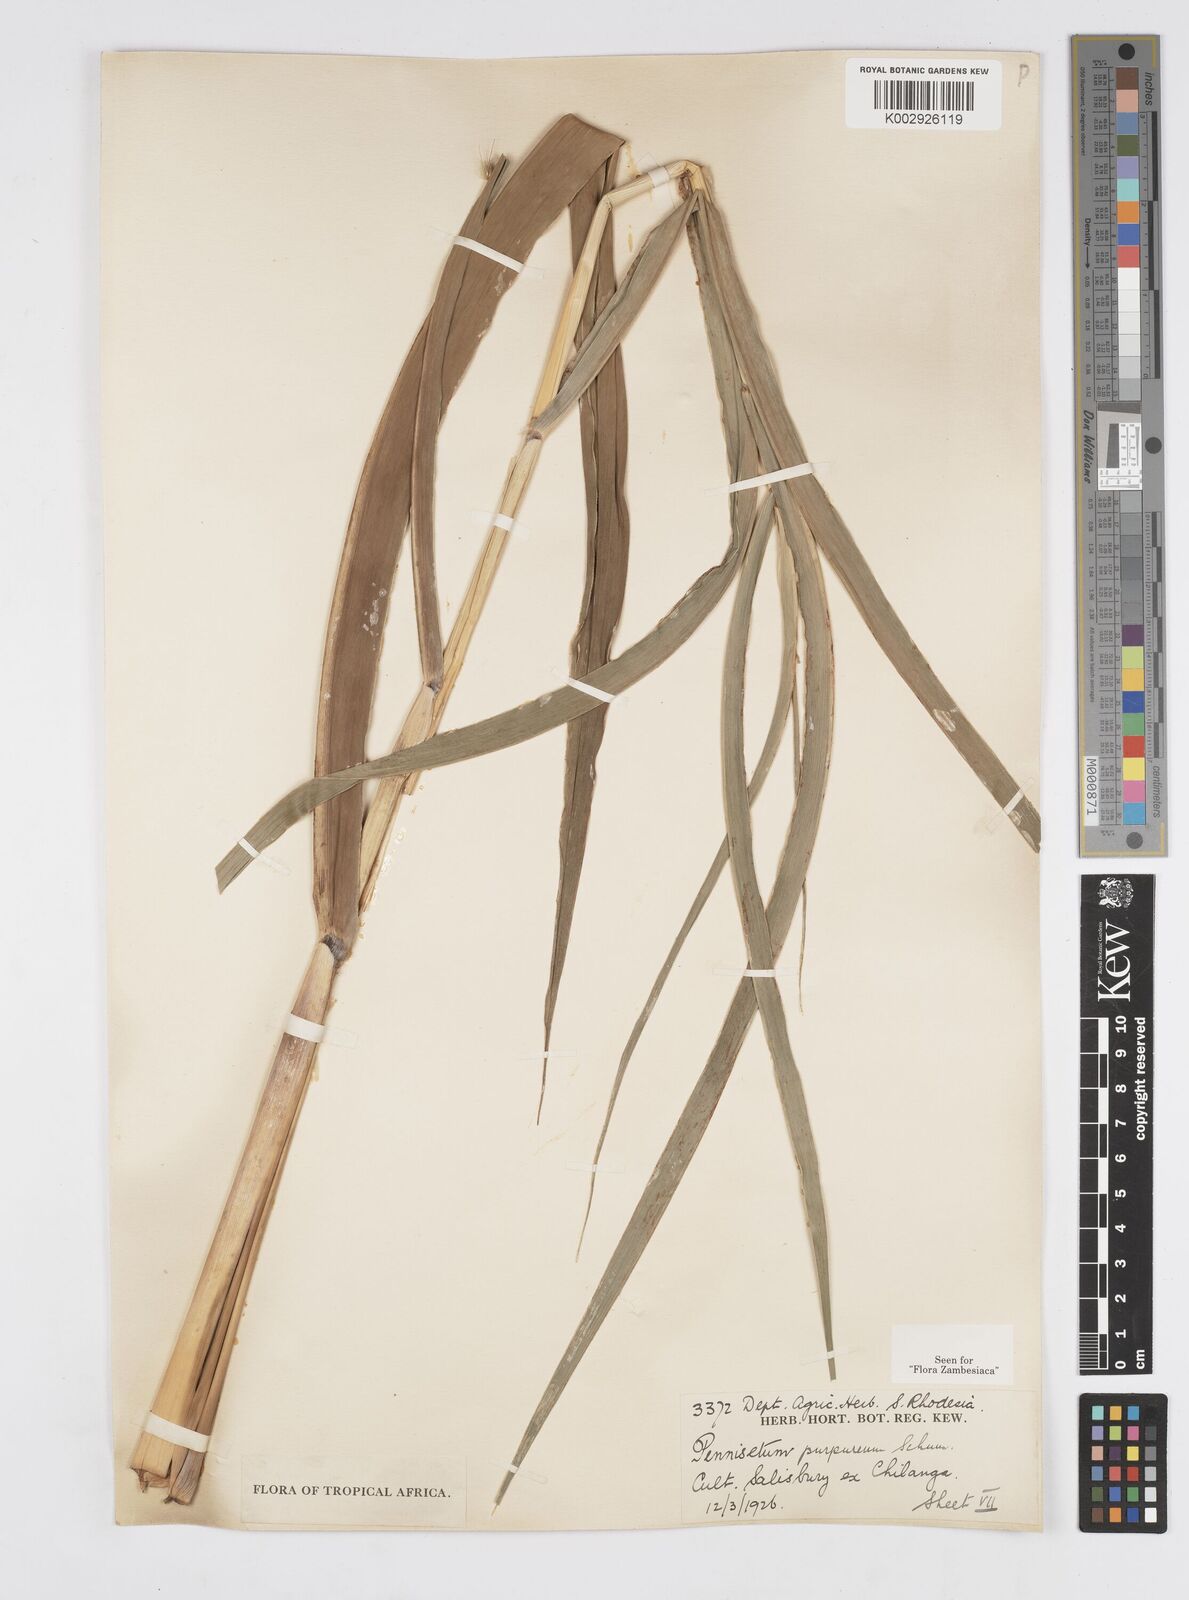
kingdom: Plantae
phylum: Tracheophyta
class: Liliopsida
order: Poales
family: Poaceae
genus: Cenchrus
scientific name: Cenchrus purpureus
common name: Elephant grass
